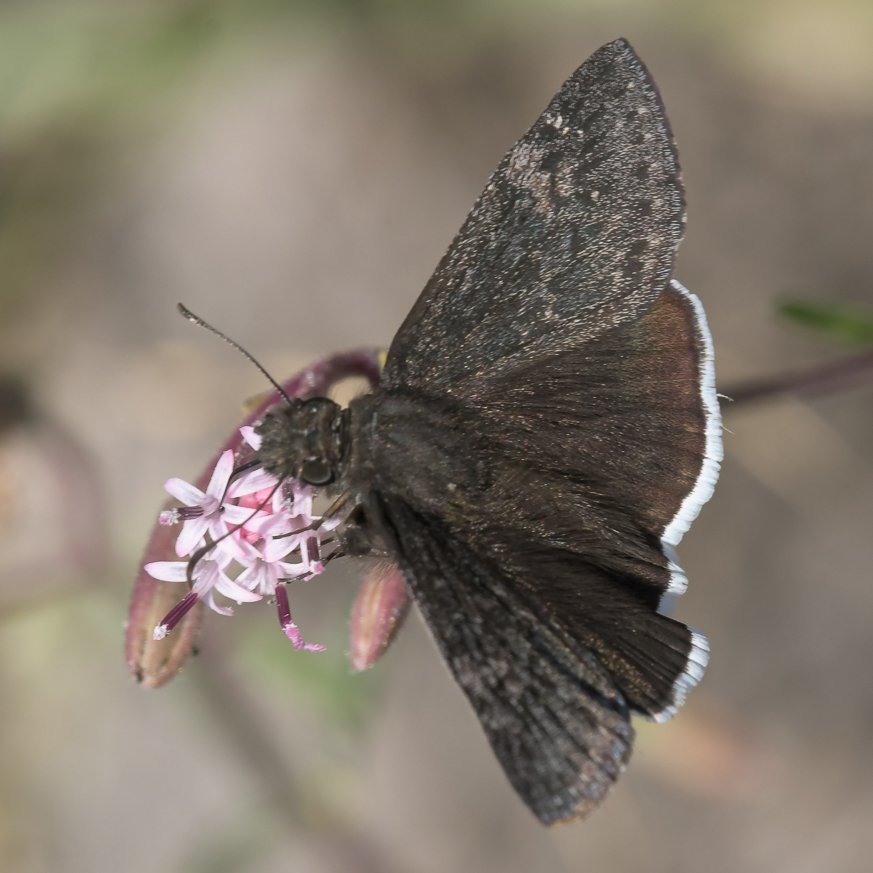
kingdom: Animalia
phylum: Arthropoda
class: Insecta
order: Lepidoptera
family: Hesperiidae
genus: Erynnis
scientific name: Erynnis funeralis
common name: Funereal Duskywing
